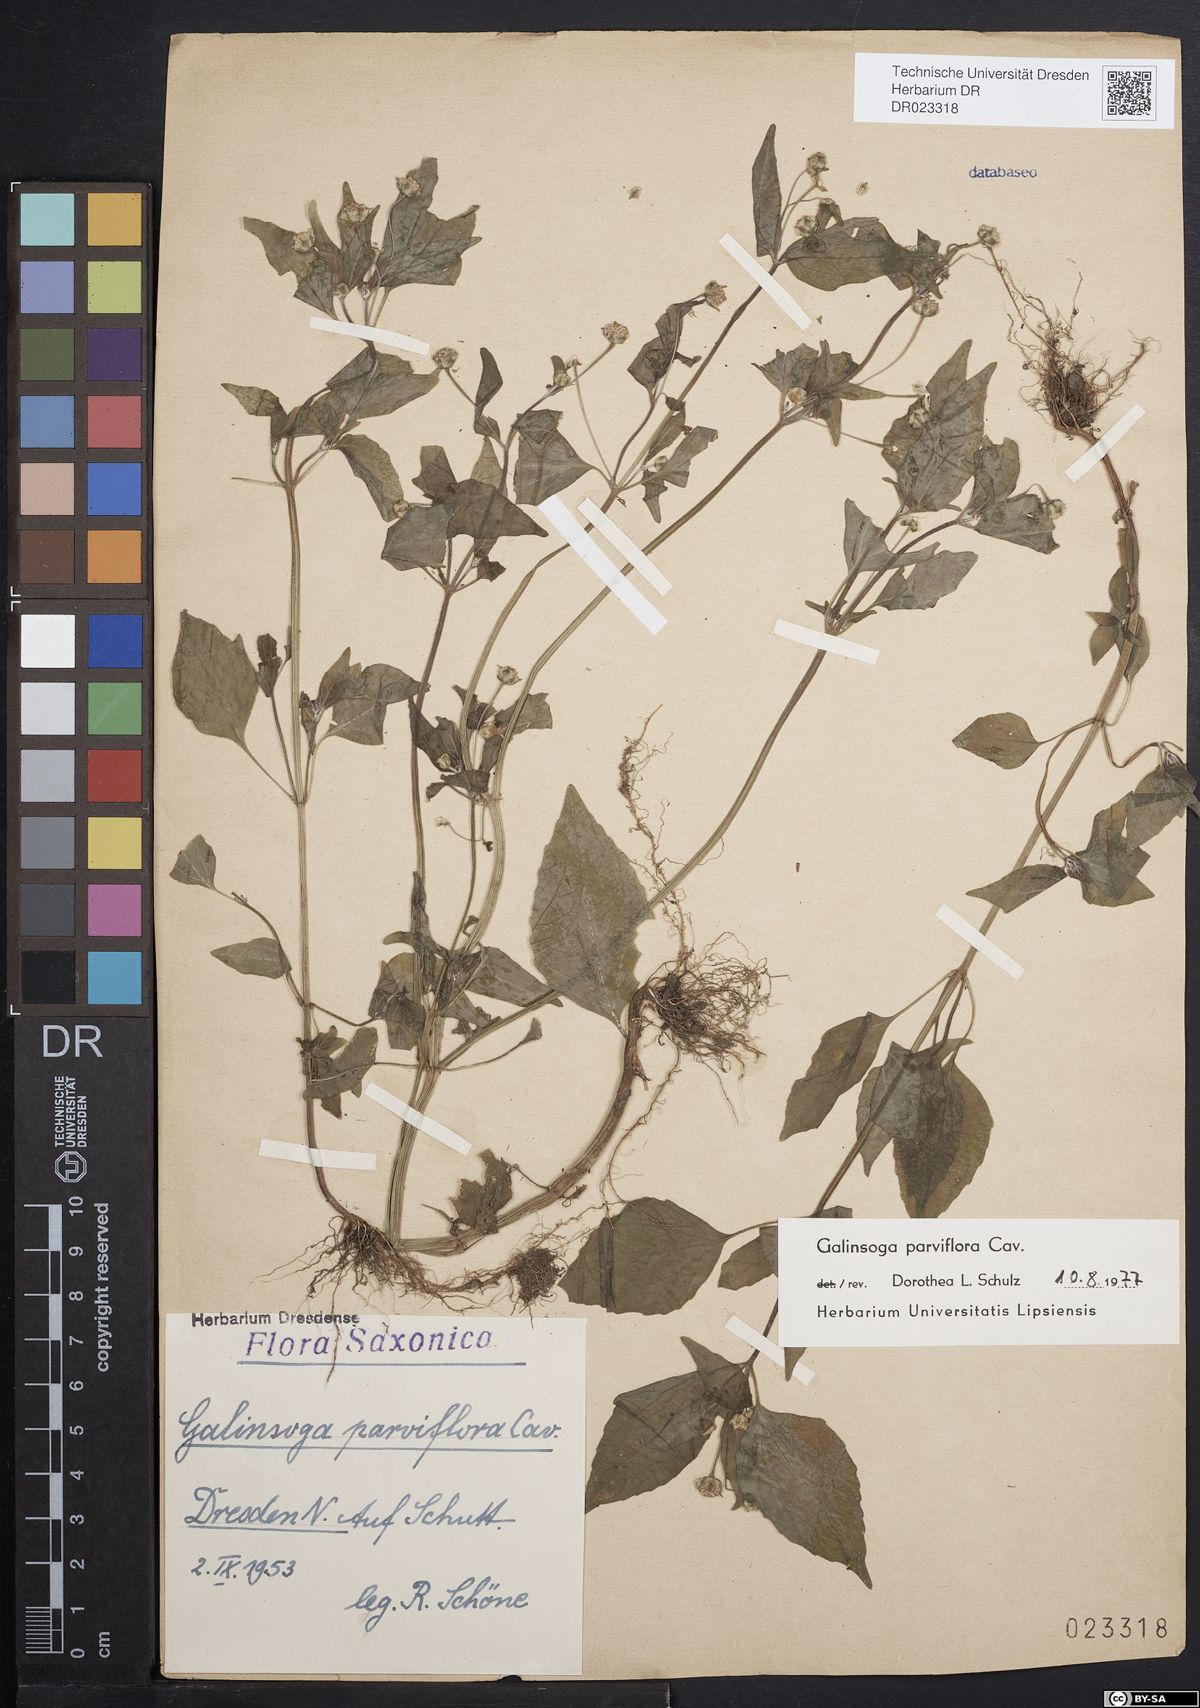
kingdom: Plantae
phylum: Tracheophyta
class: Magnoliopsida
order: Asterales
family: Asteraceae
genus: Galinsoga
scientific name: Galinsoga parviflora
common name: Gallant soldier
